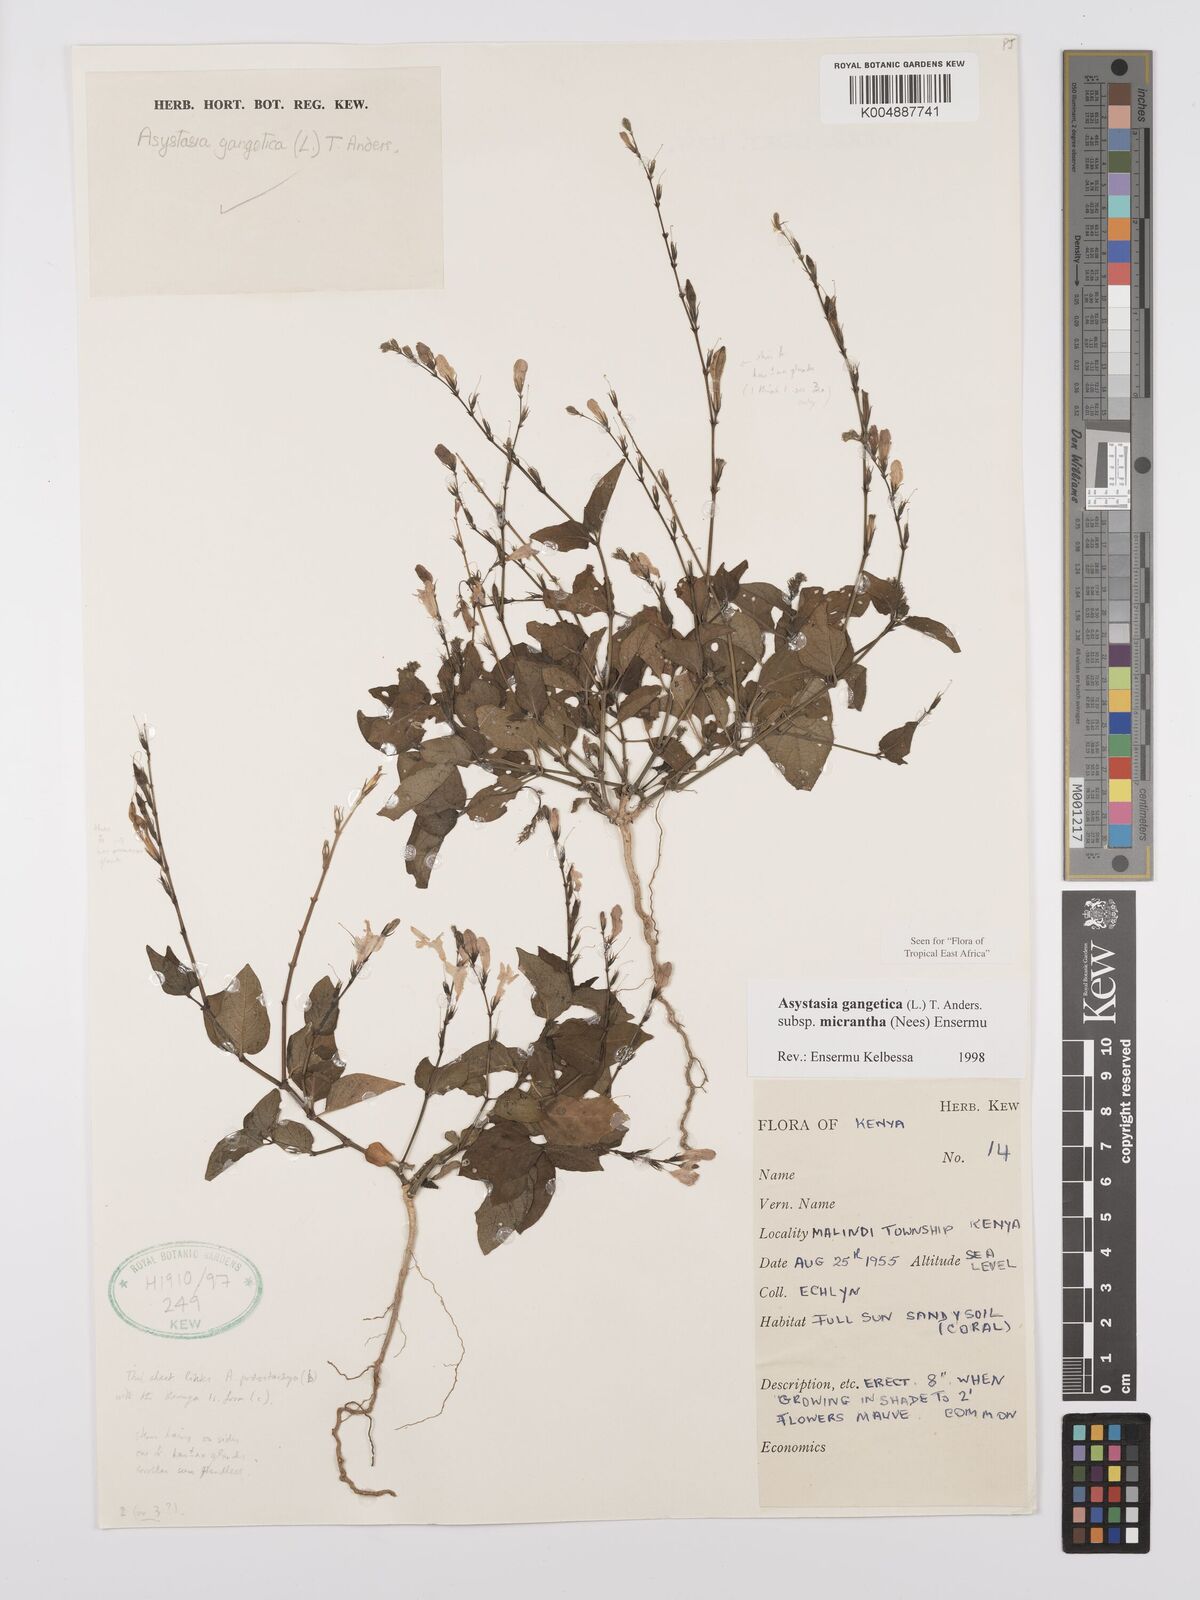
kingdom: Plantae
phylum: Tracheophyta
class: Magnoliopsida
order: Lamiales
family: Acanthaceae
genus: Asystasia
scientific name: Asystasia gangetica
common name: Chinese violet
